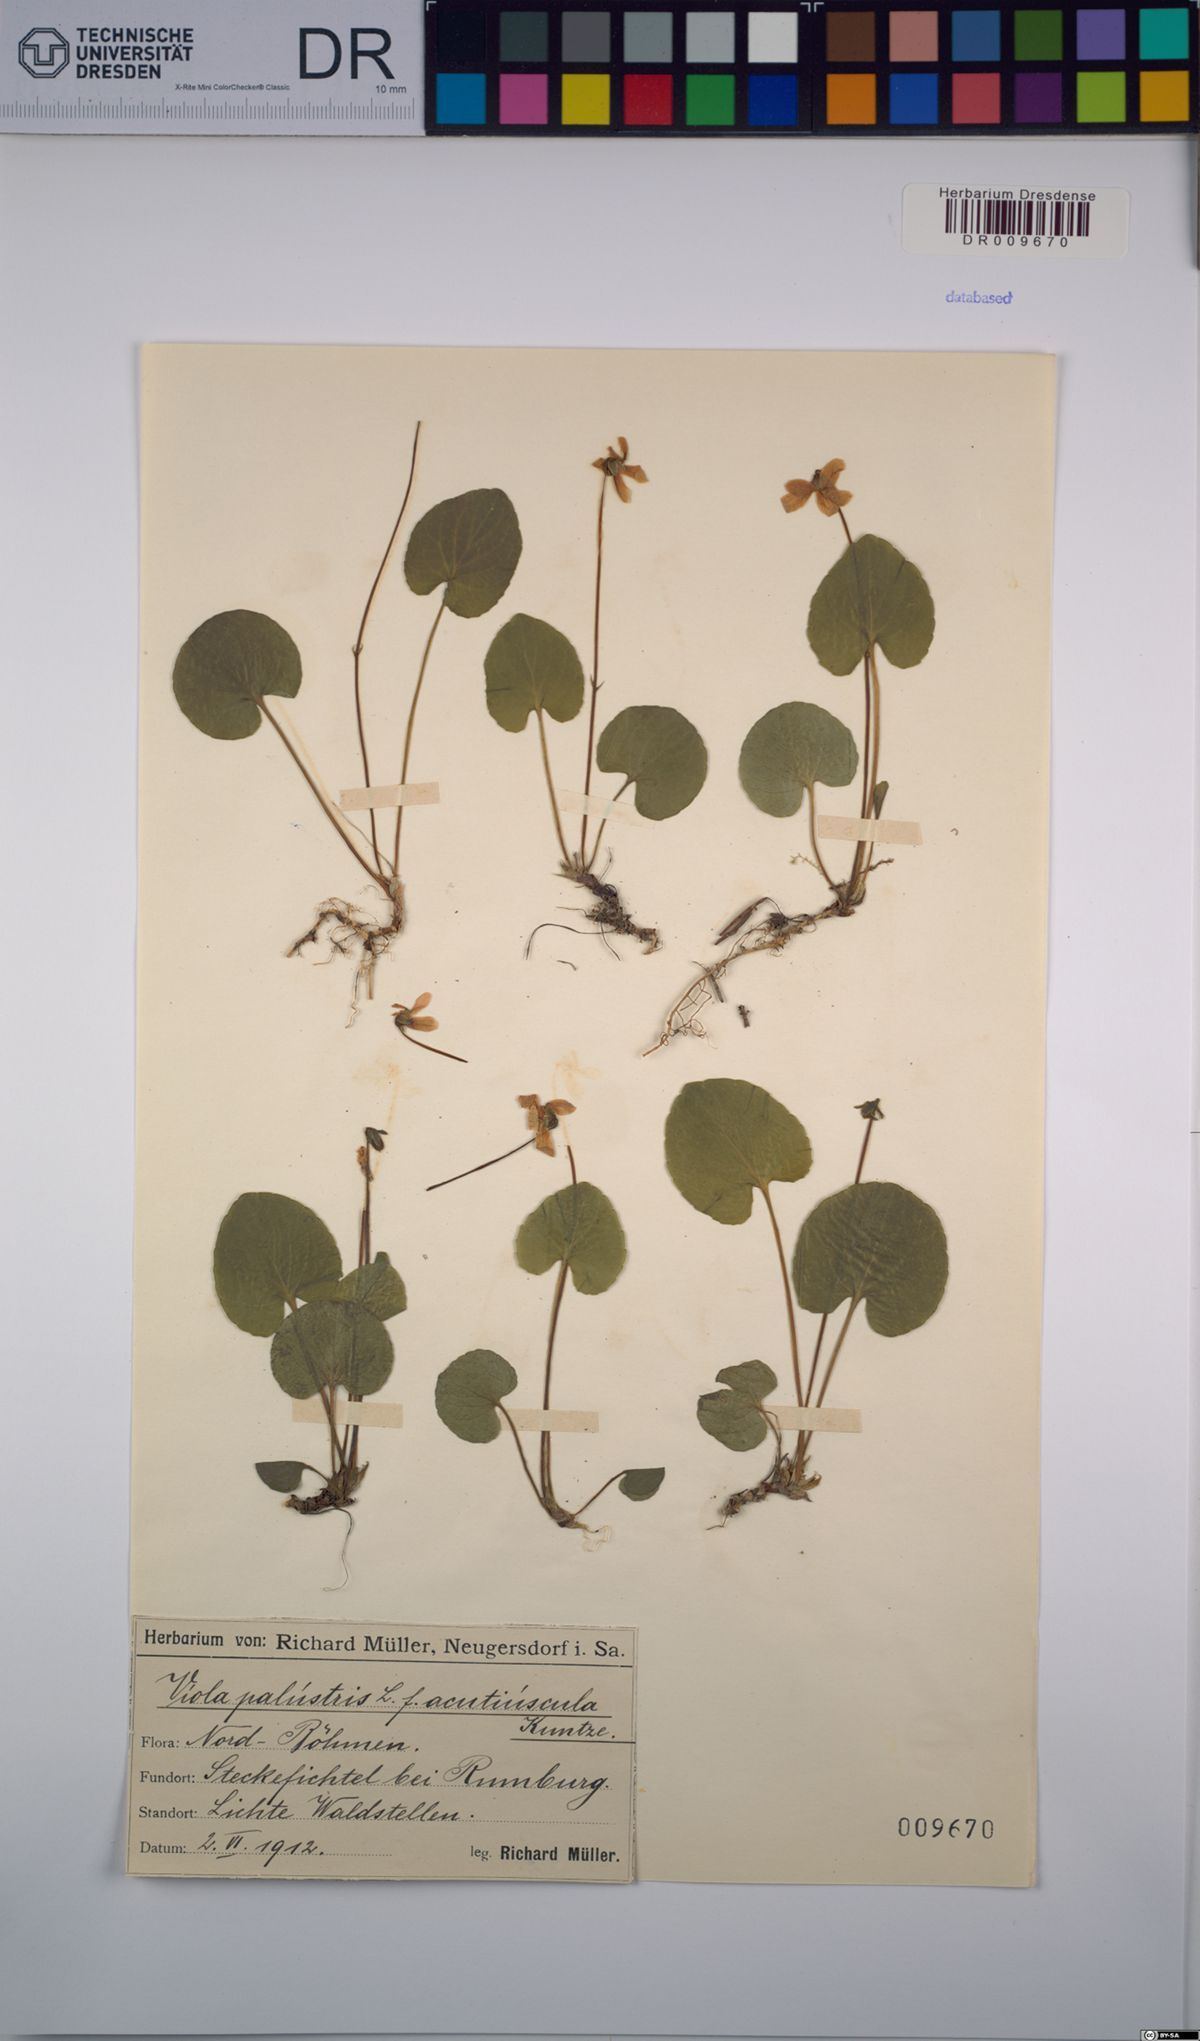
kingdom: Plantae
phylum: Tracheophyta
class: Magnoliopsida
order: Malpighiales
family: Violaceae
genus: Viola
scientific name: Viola palustris
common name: Marsh violet
